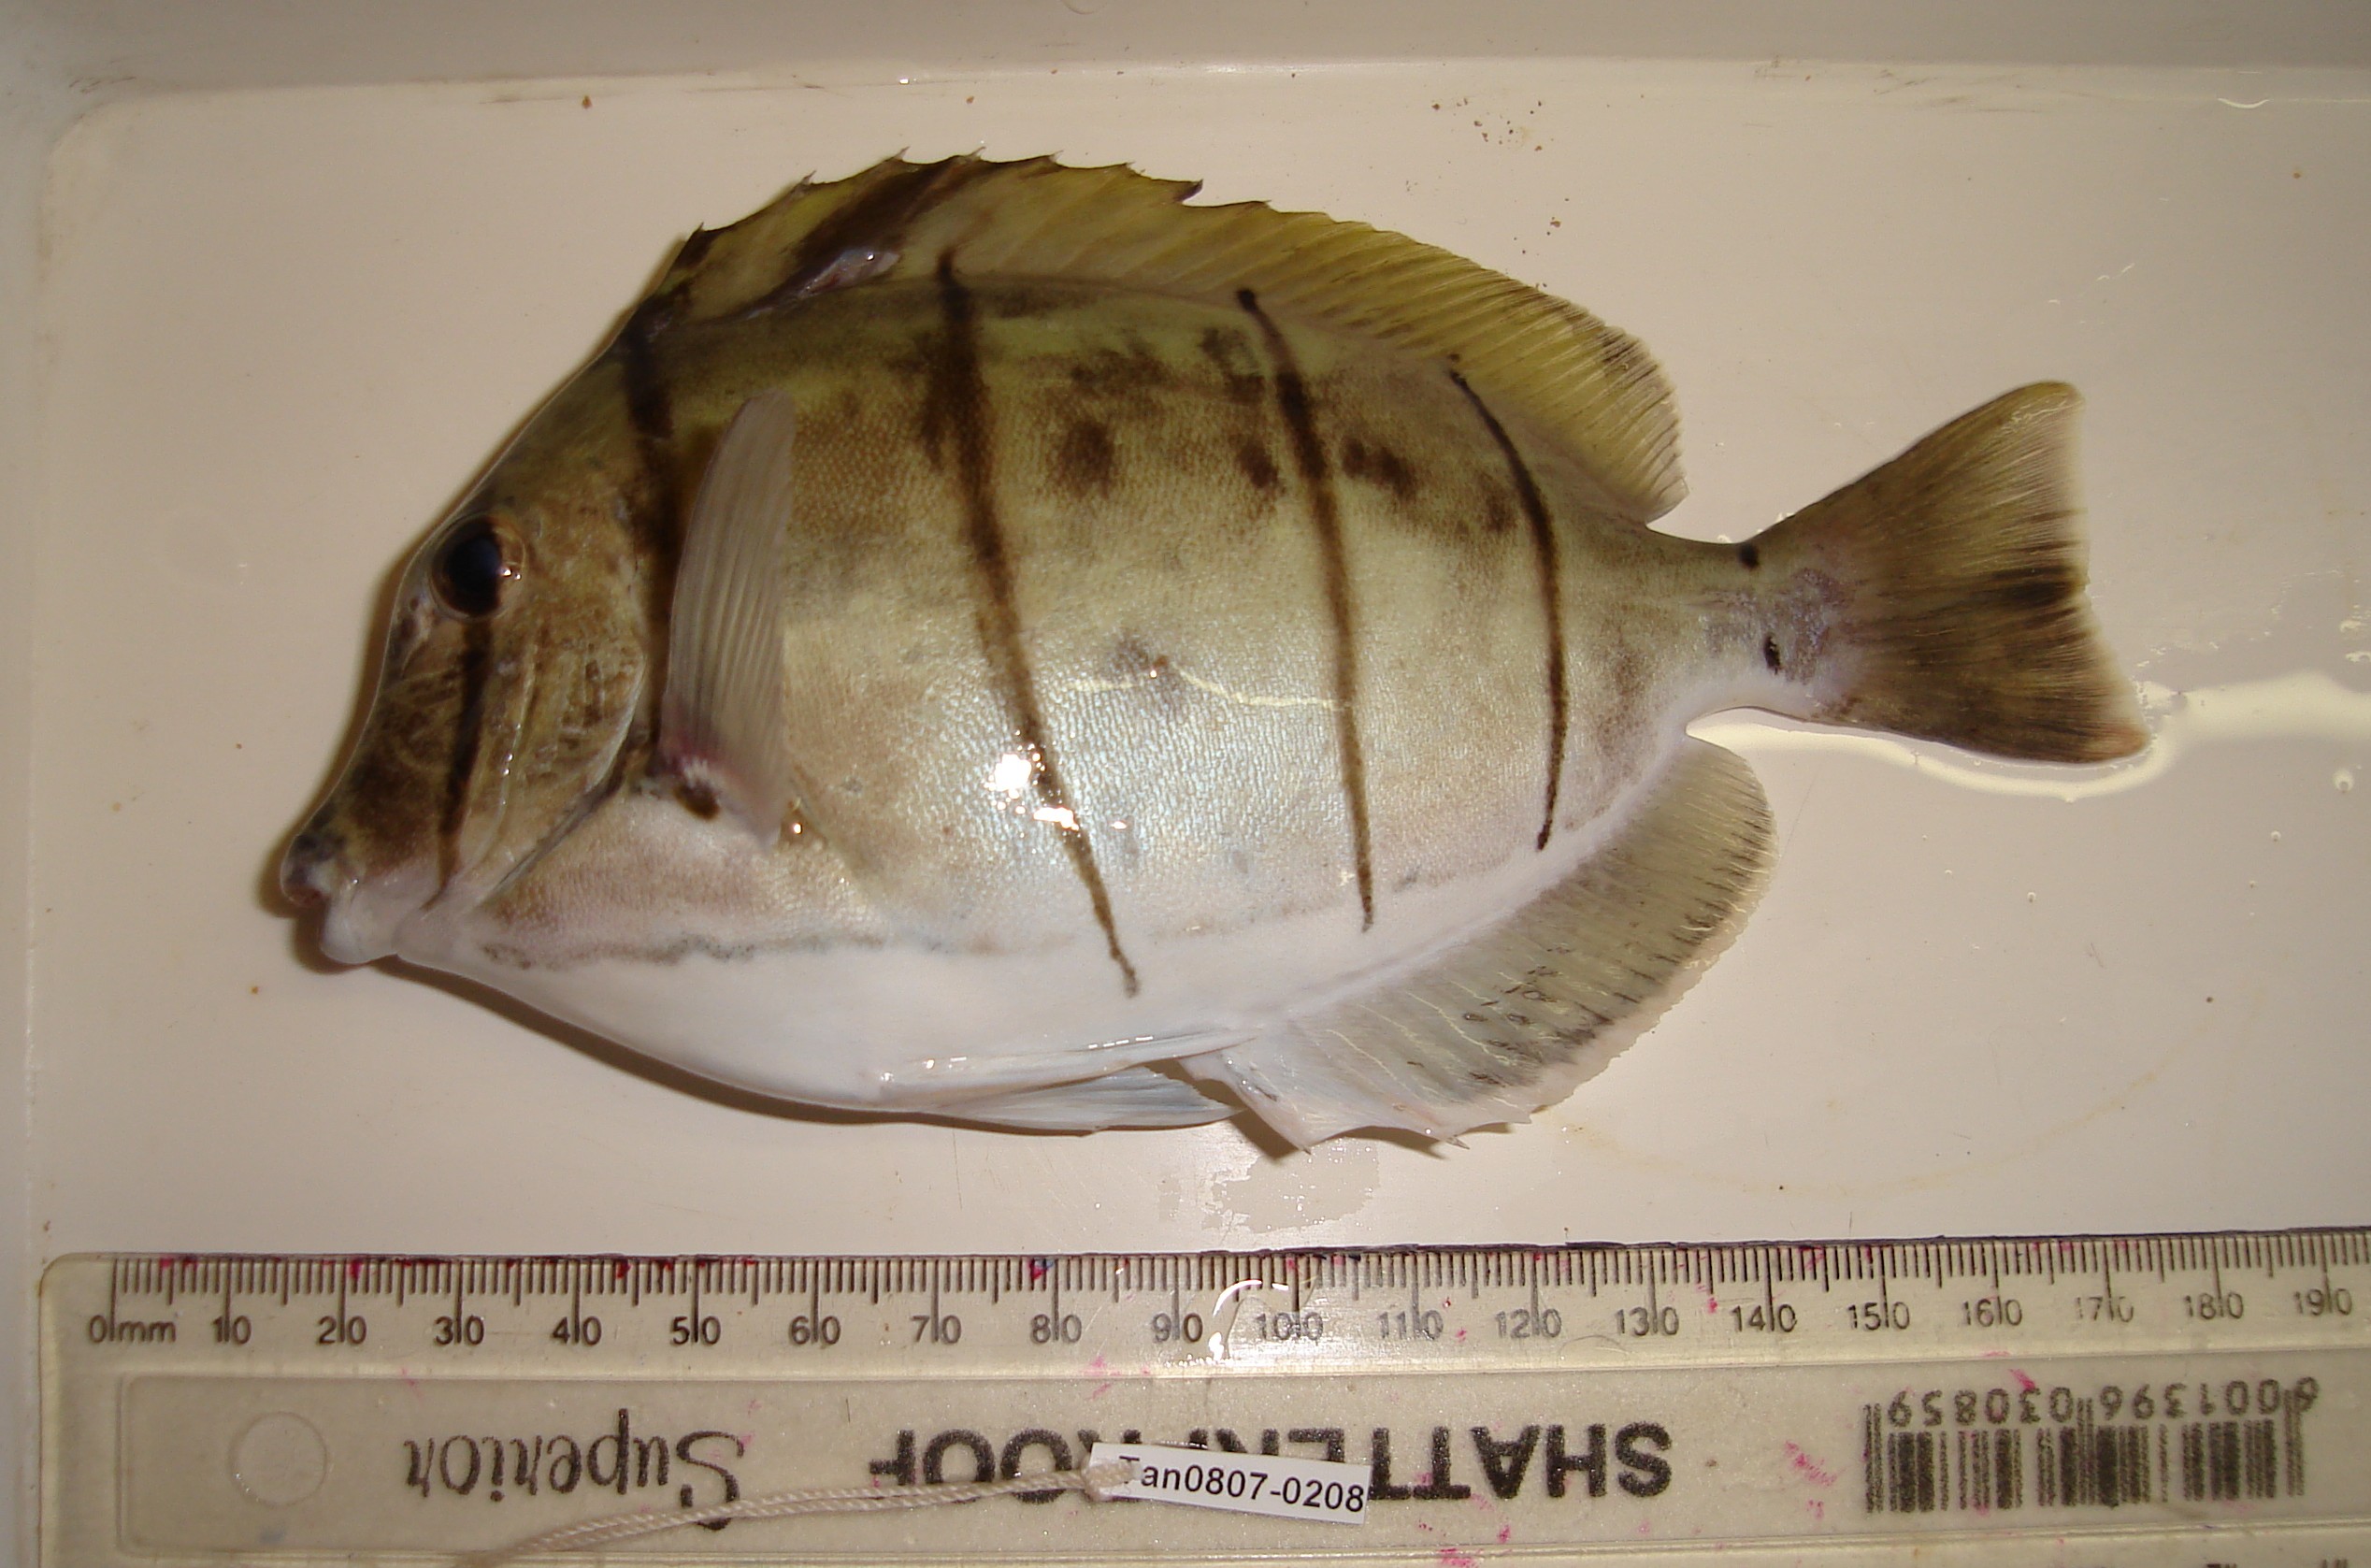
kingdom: Animalia
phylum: Chordata
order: Perciformes
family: Acanthuridae
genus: Acanthurus
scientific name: Acanthurus triostegus
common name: Convict surgeonfish
